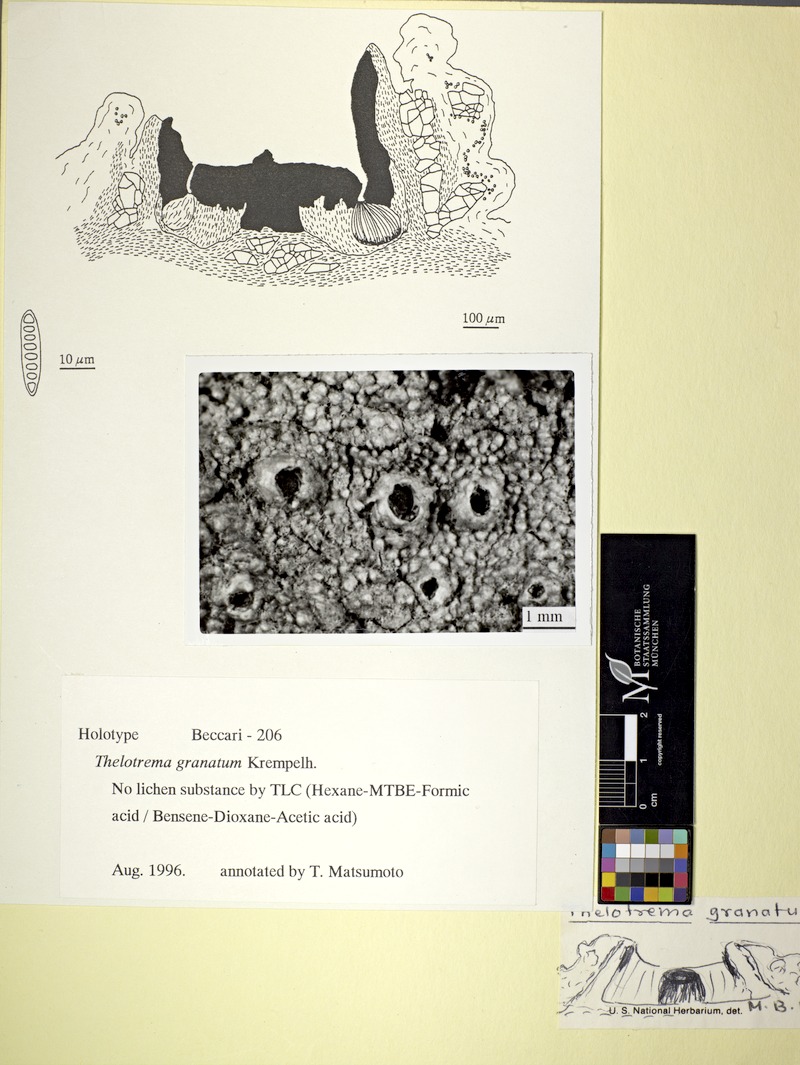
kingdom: Fungi
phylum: Ascomycota
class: Lecanoromycetes
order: Ostropales
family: Graphidaceae
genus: Thelotrema
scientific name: Thelotrema granatum
